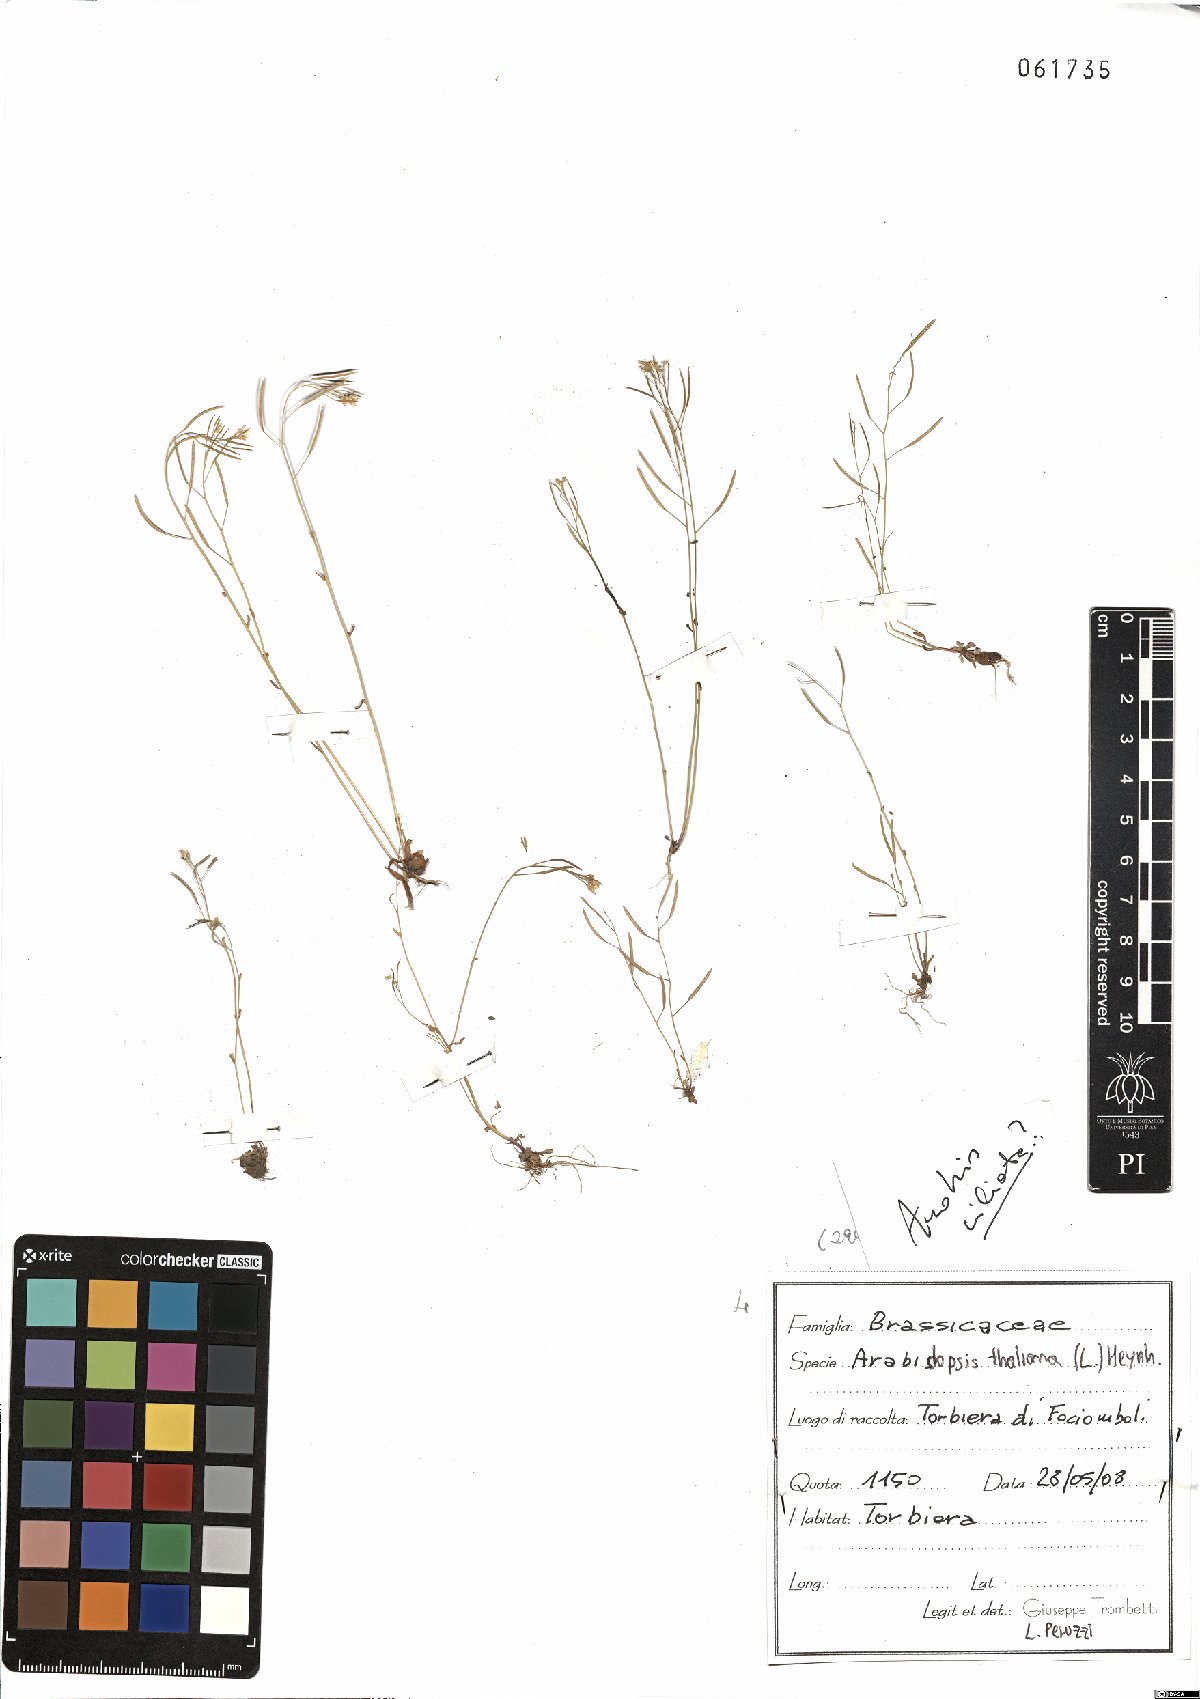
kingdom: Plantae
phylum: Tracheophyta
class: Magnoliopsida
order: Brassicales
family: Brassicaceae
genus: Arabidopsis
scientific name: Arabidopsis thaliana
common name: Thale cress
